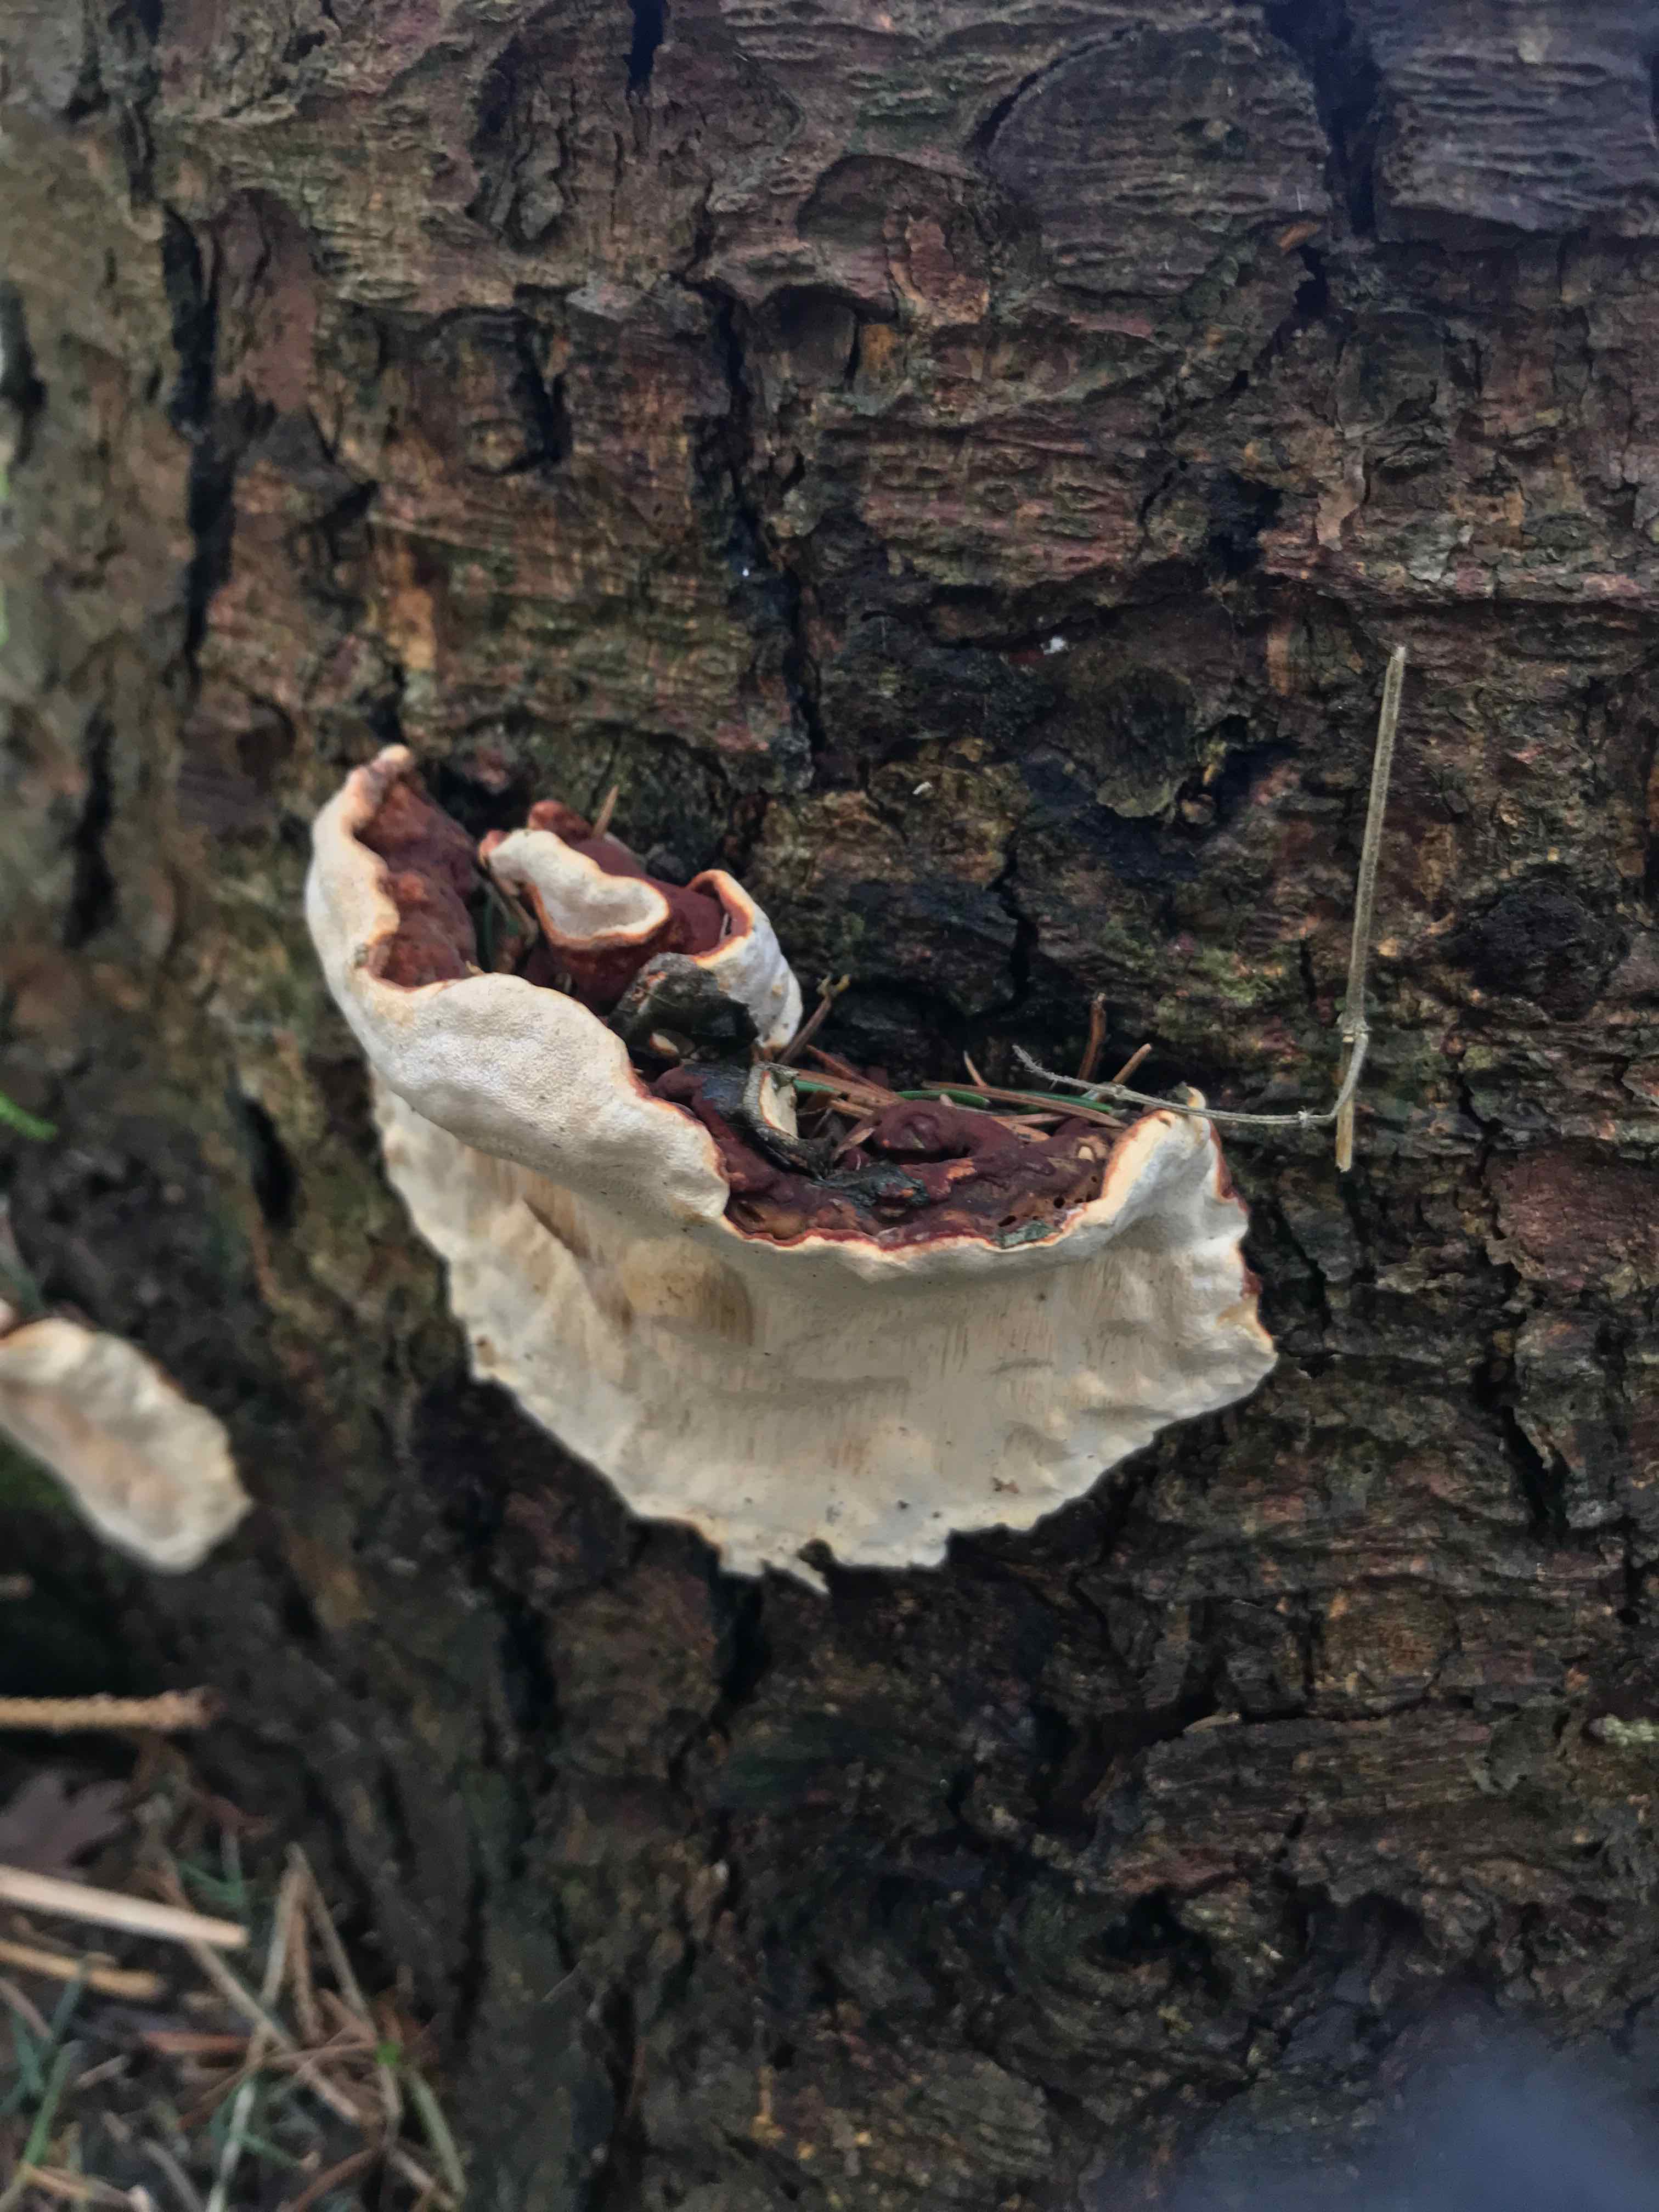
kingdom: Fungi
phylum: Basidiomycota
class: Agaricomycetes
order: Russulales
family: Bondarzewiaceae
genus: Heterobasidion
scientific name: Heterobasidion annosum
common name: almindelig rodfordærver
